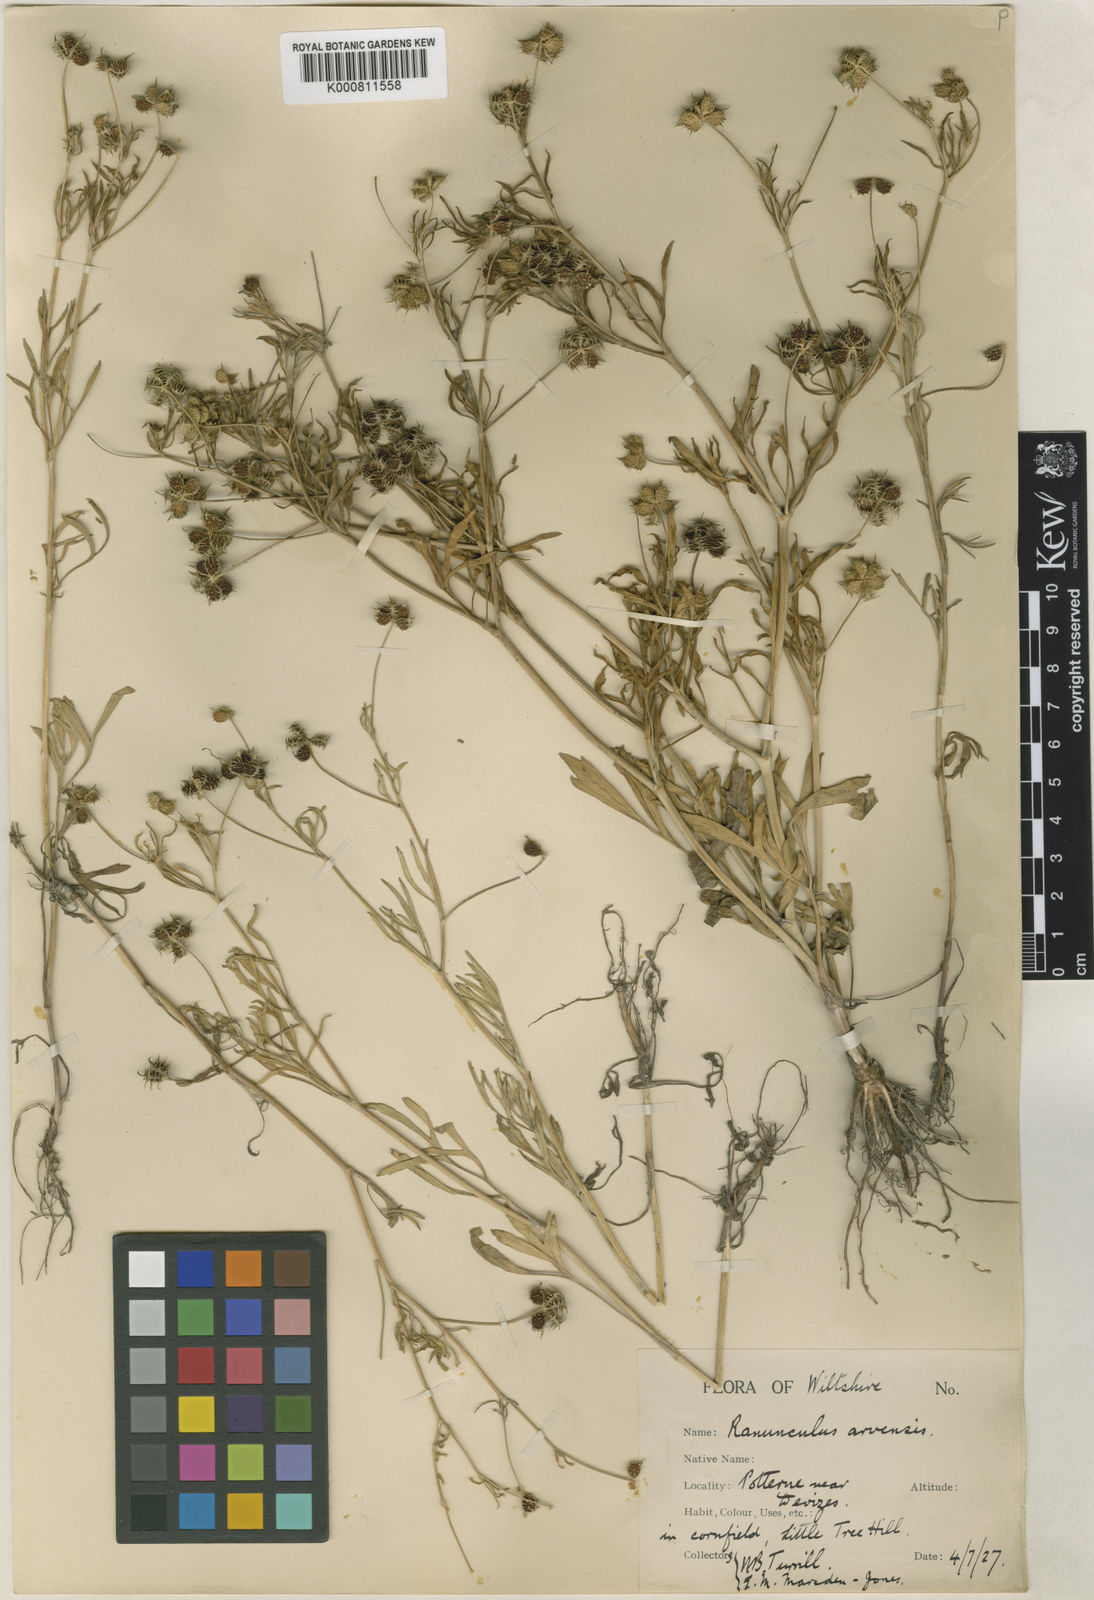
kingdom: Plantae
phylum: Tracheophyta
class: Magnoliopsida
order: Ranunculales
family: Ranunculaceae
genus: Ranunculus
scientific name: Ranunculus arvensis
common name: Corn buttercup
